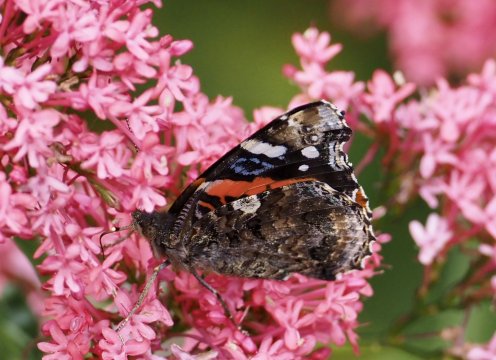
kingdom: Animalia
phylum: Arthropoda
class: Insecta
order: Lepidoptera
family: Nymphalidae
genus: Vanessa
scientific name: Vanessa atalanta
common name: Red Admiral
